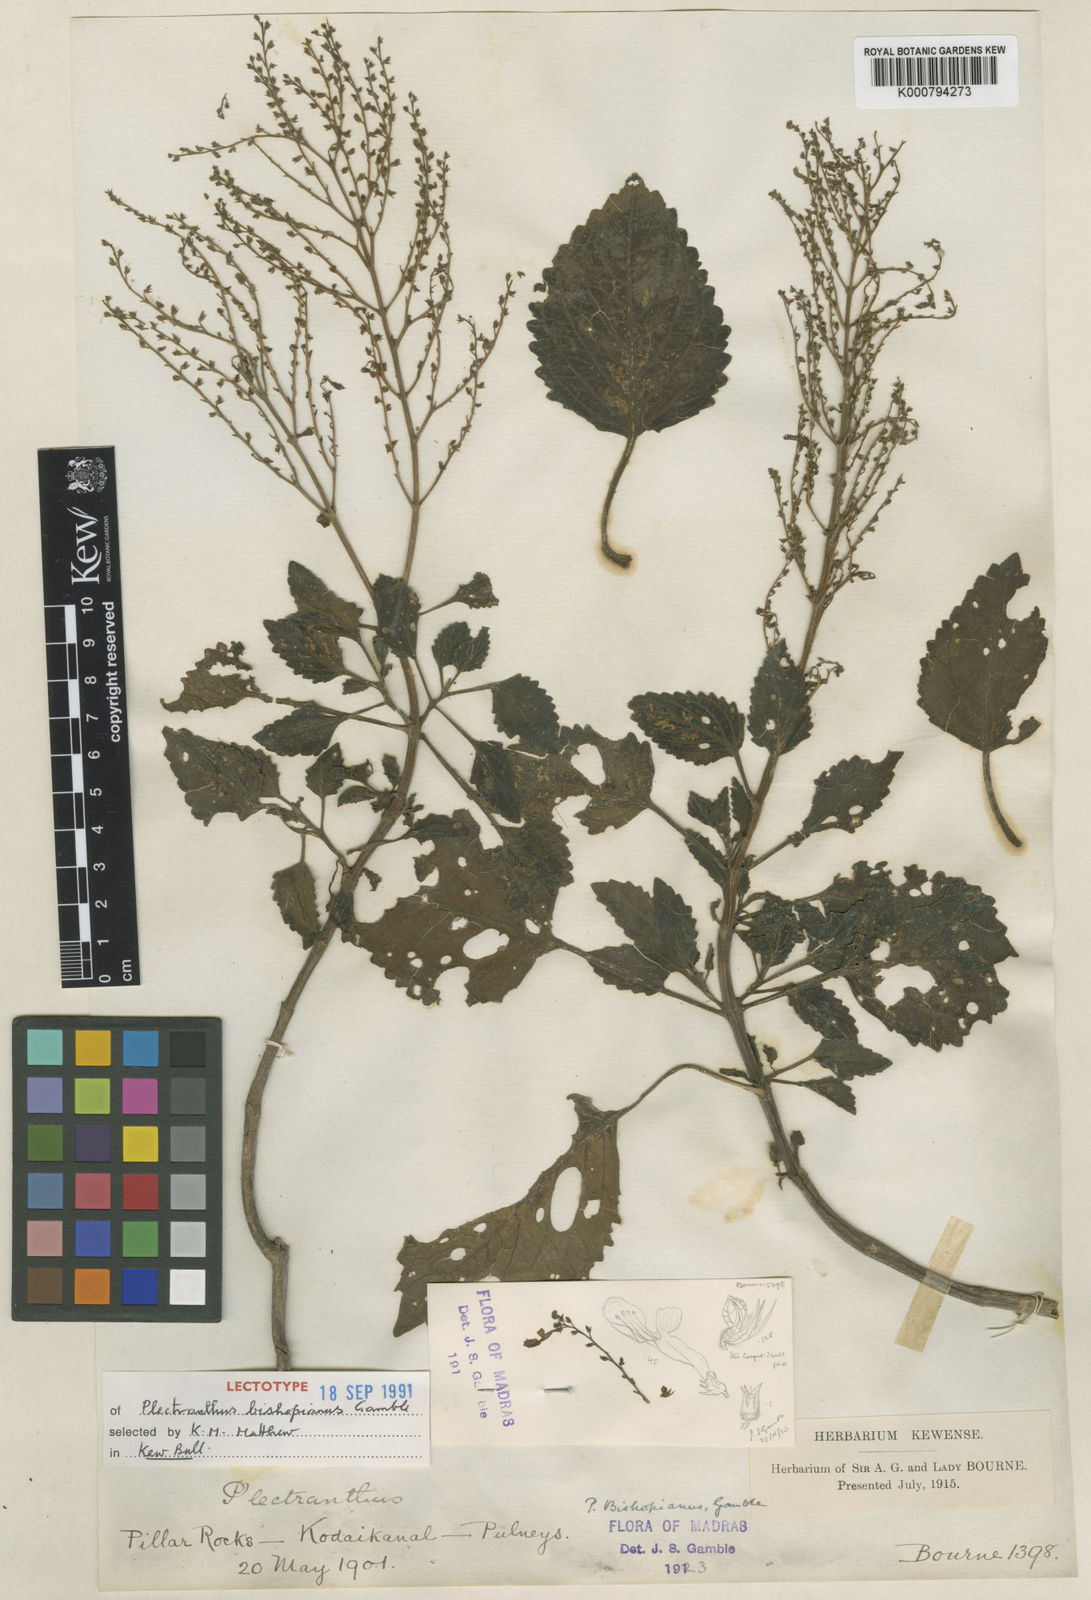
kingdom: Plantae
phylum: Tracheophyta
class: Magnoliopsida
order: Lamiales
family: Lamiaceae
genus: Coleus
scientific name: Coleus fruticosus
